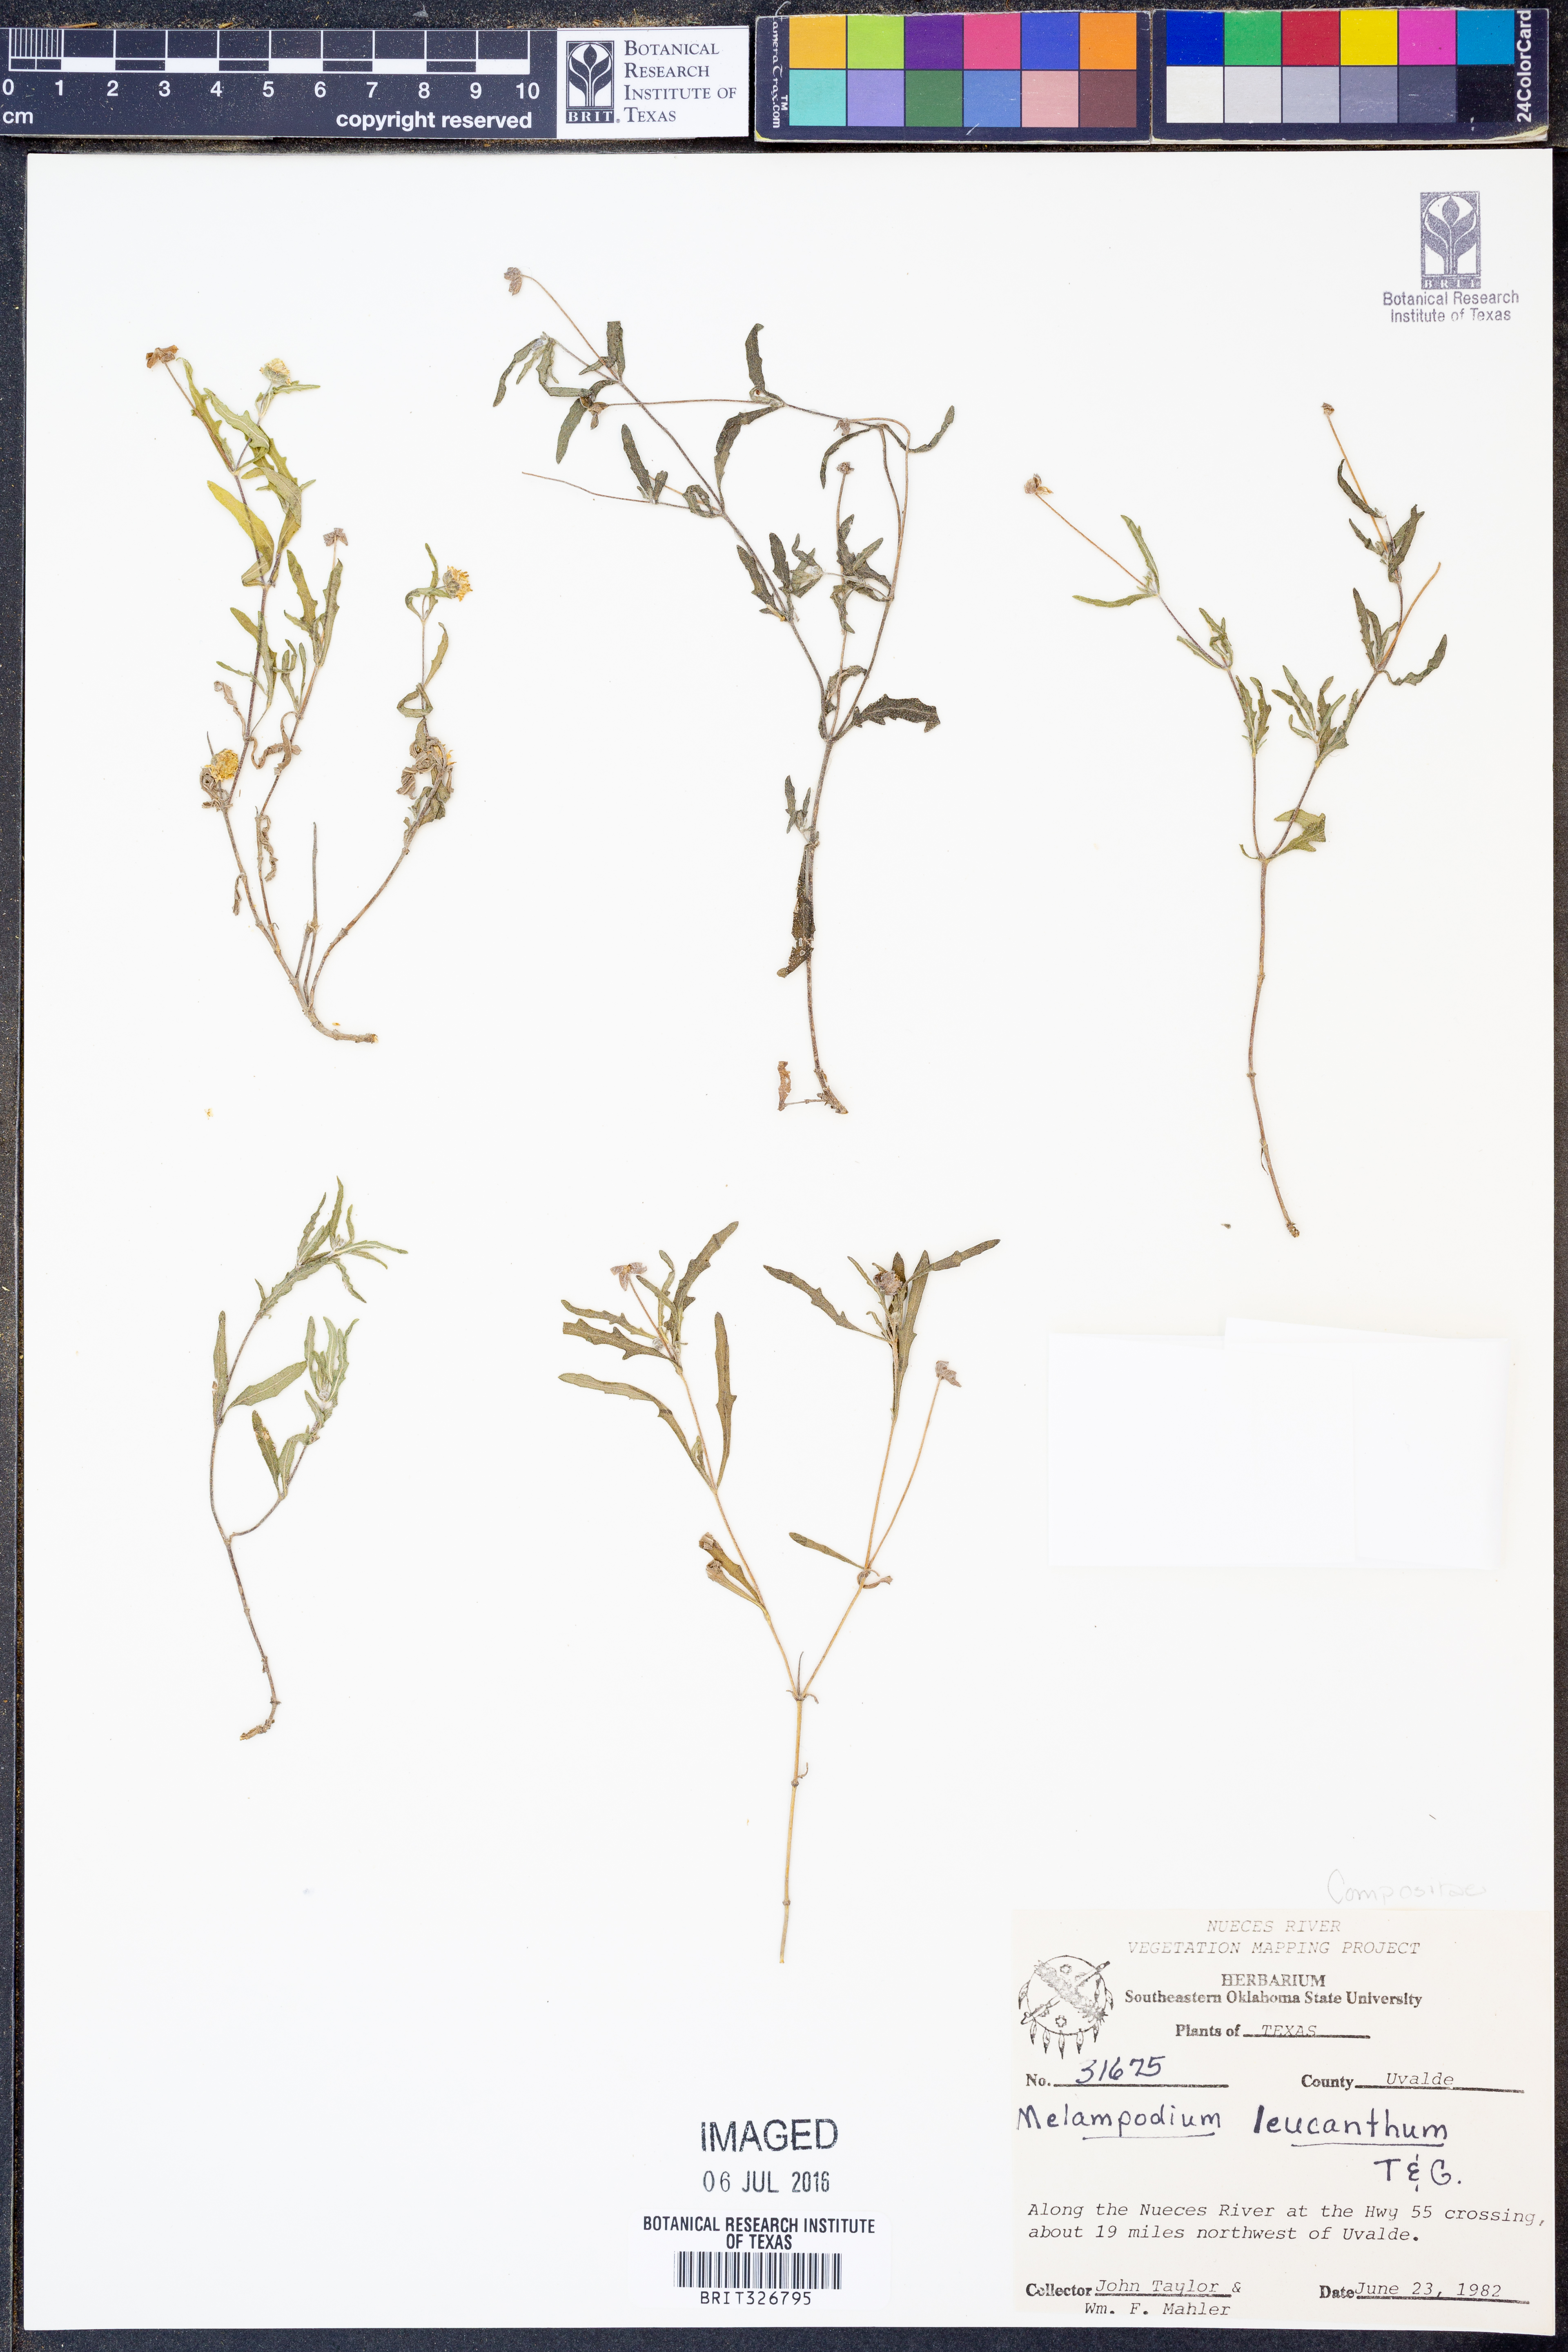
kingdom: Plantae
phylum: Tracheophyta
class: Magnoliopsida
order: Asterales
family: Asteraceae
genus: Melampodium
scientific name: Melampodium leucanthum
